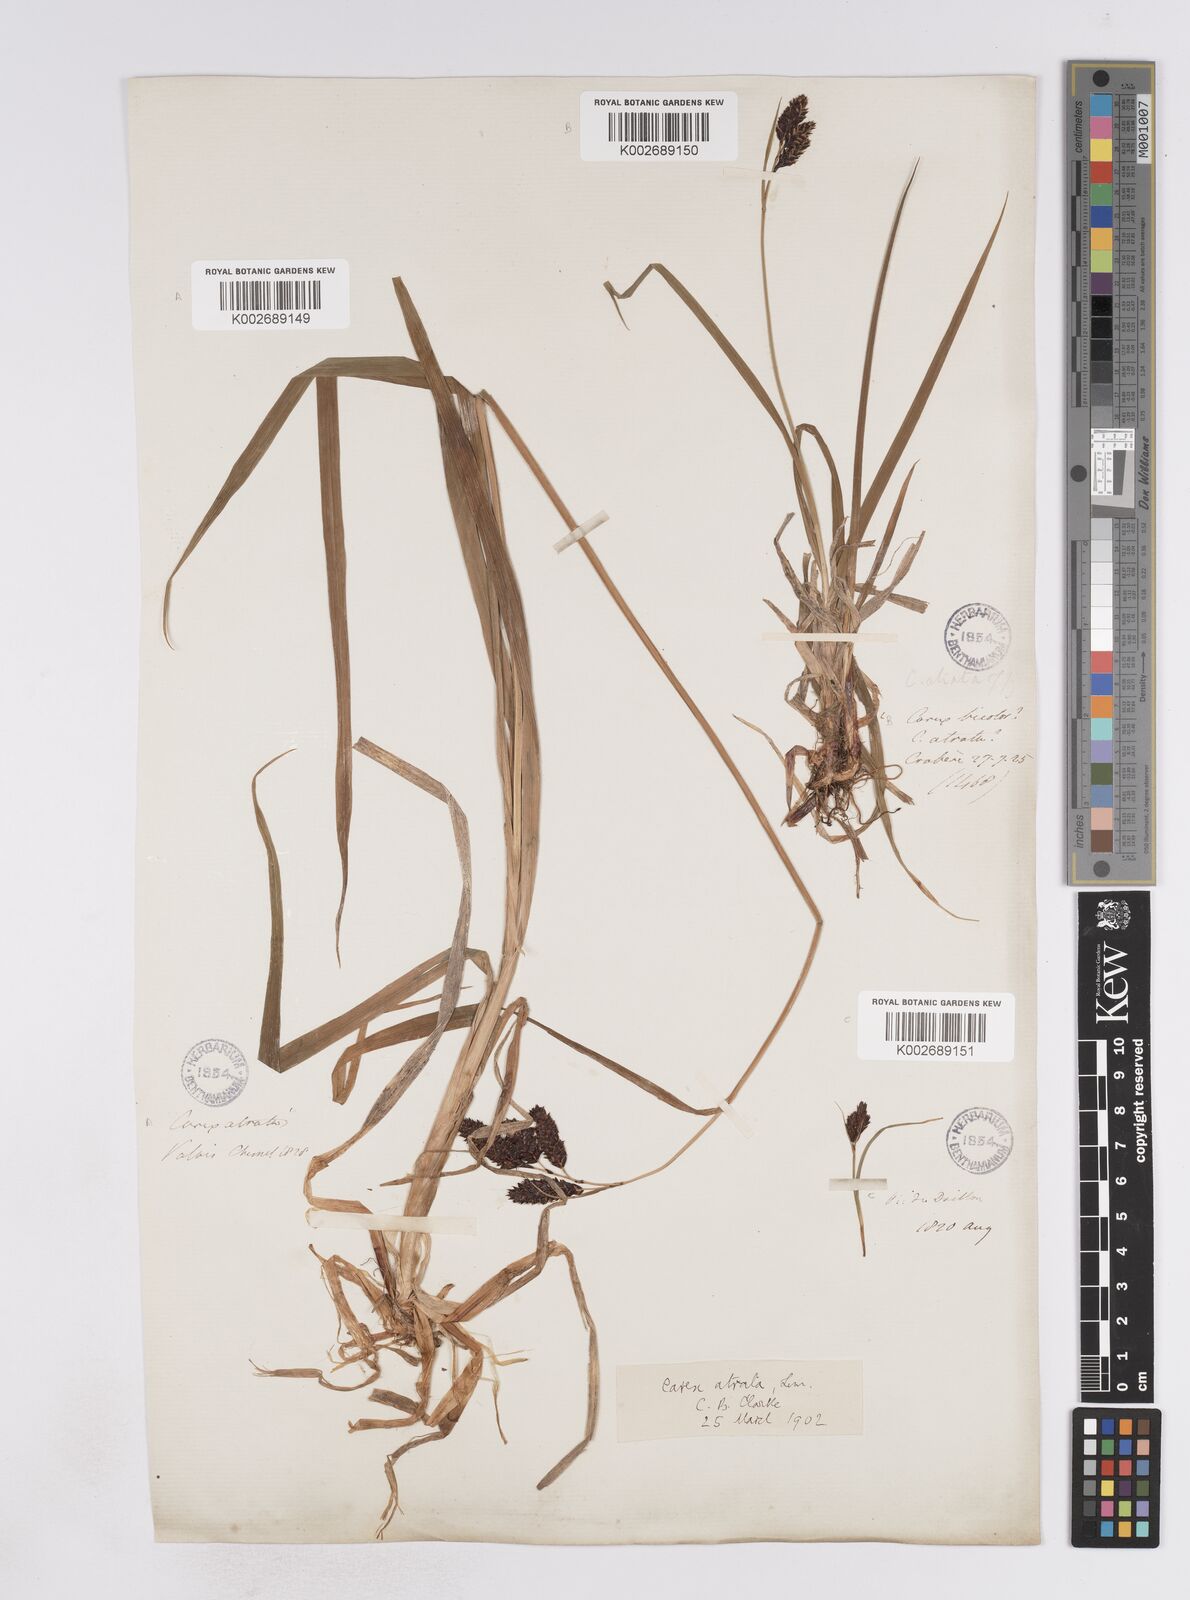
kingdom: Plantae
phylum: Tracheophyta
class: Liliopsida
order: Poales
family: Cyperaceae
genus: Carex
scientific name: Carex aterrima
